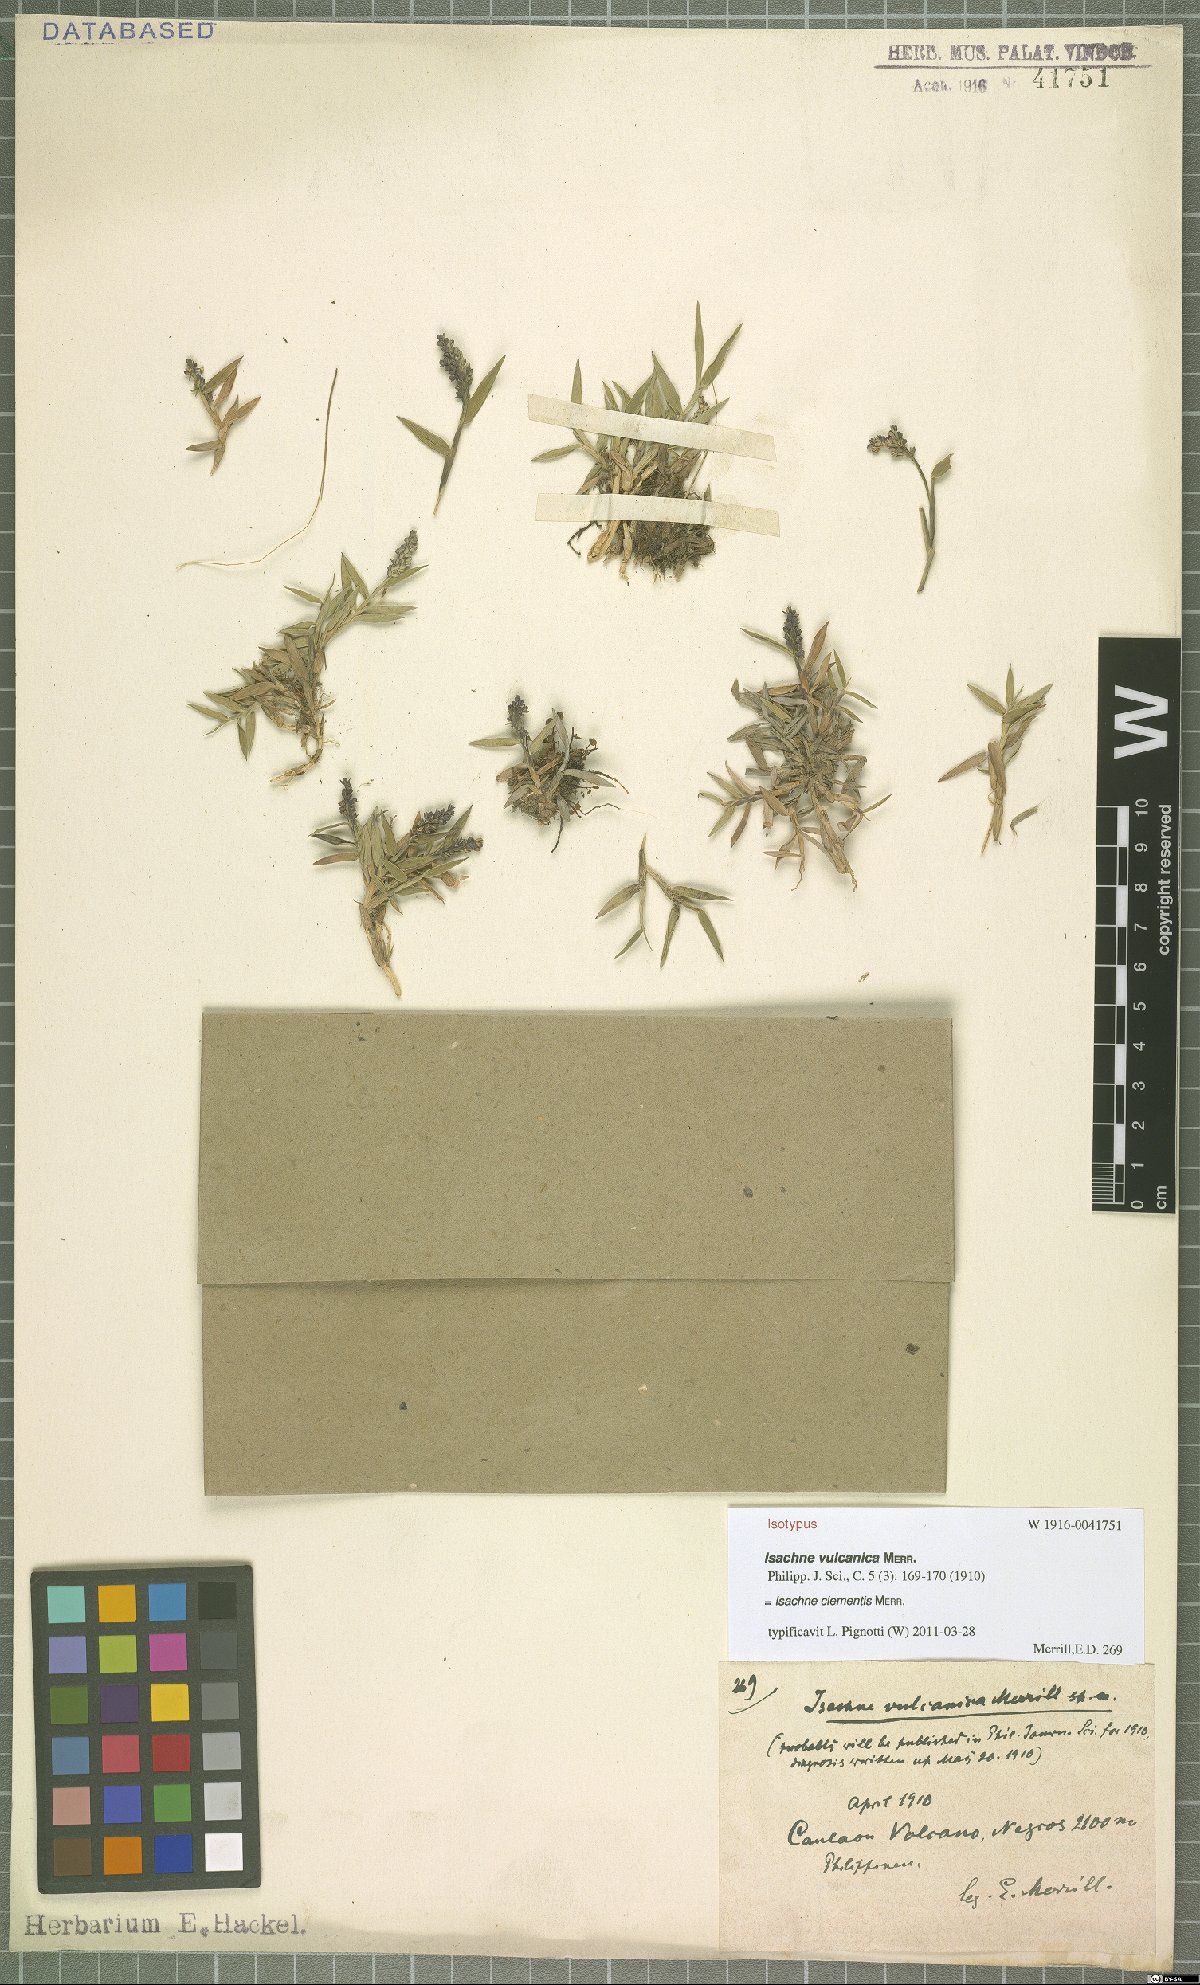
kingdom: Plantae
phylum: Tracheophyta
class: Liliopsida
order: Poales
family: Poaceae
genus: Isachne
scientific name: Isachne clementis
